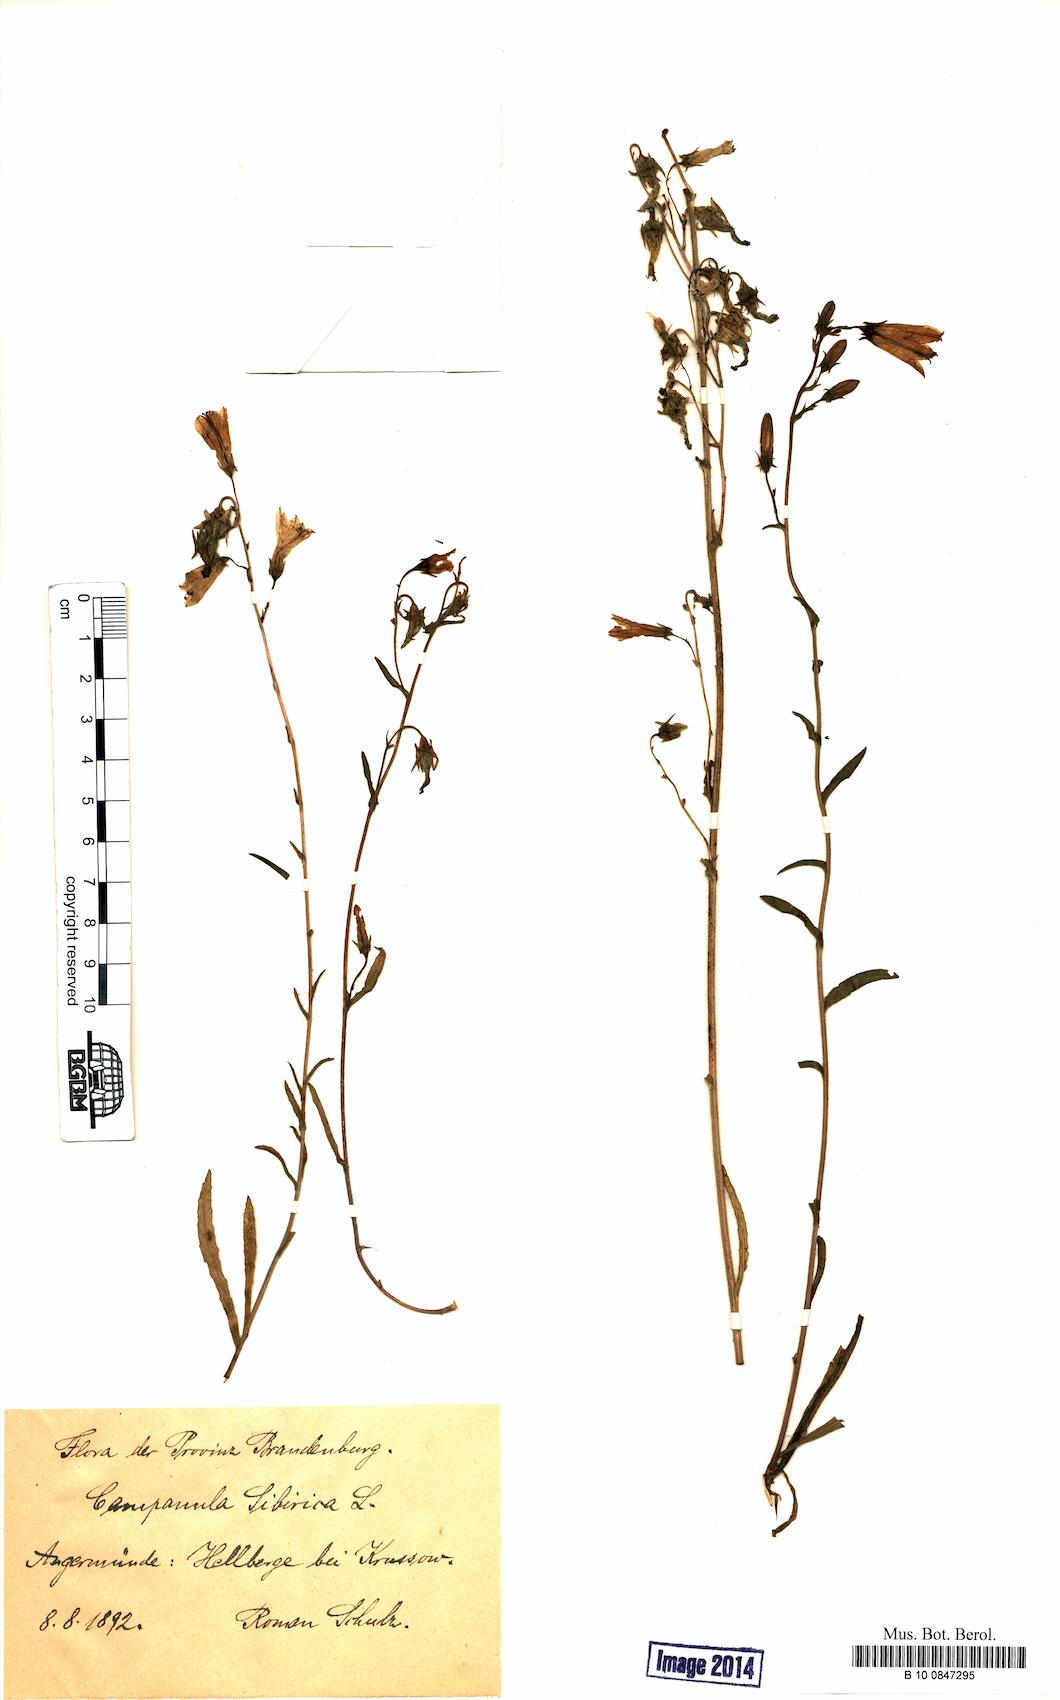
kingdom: Plantae
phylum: Tracheophyta
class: Magnoliopsida
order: Asterales
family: Campanulaceae
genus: Campanula
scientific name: Campanula sibirica
